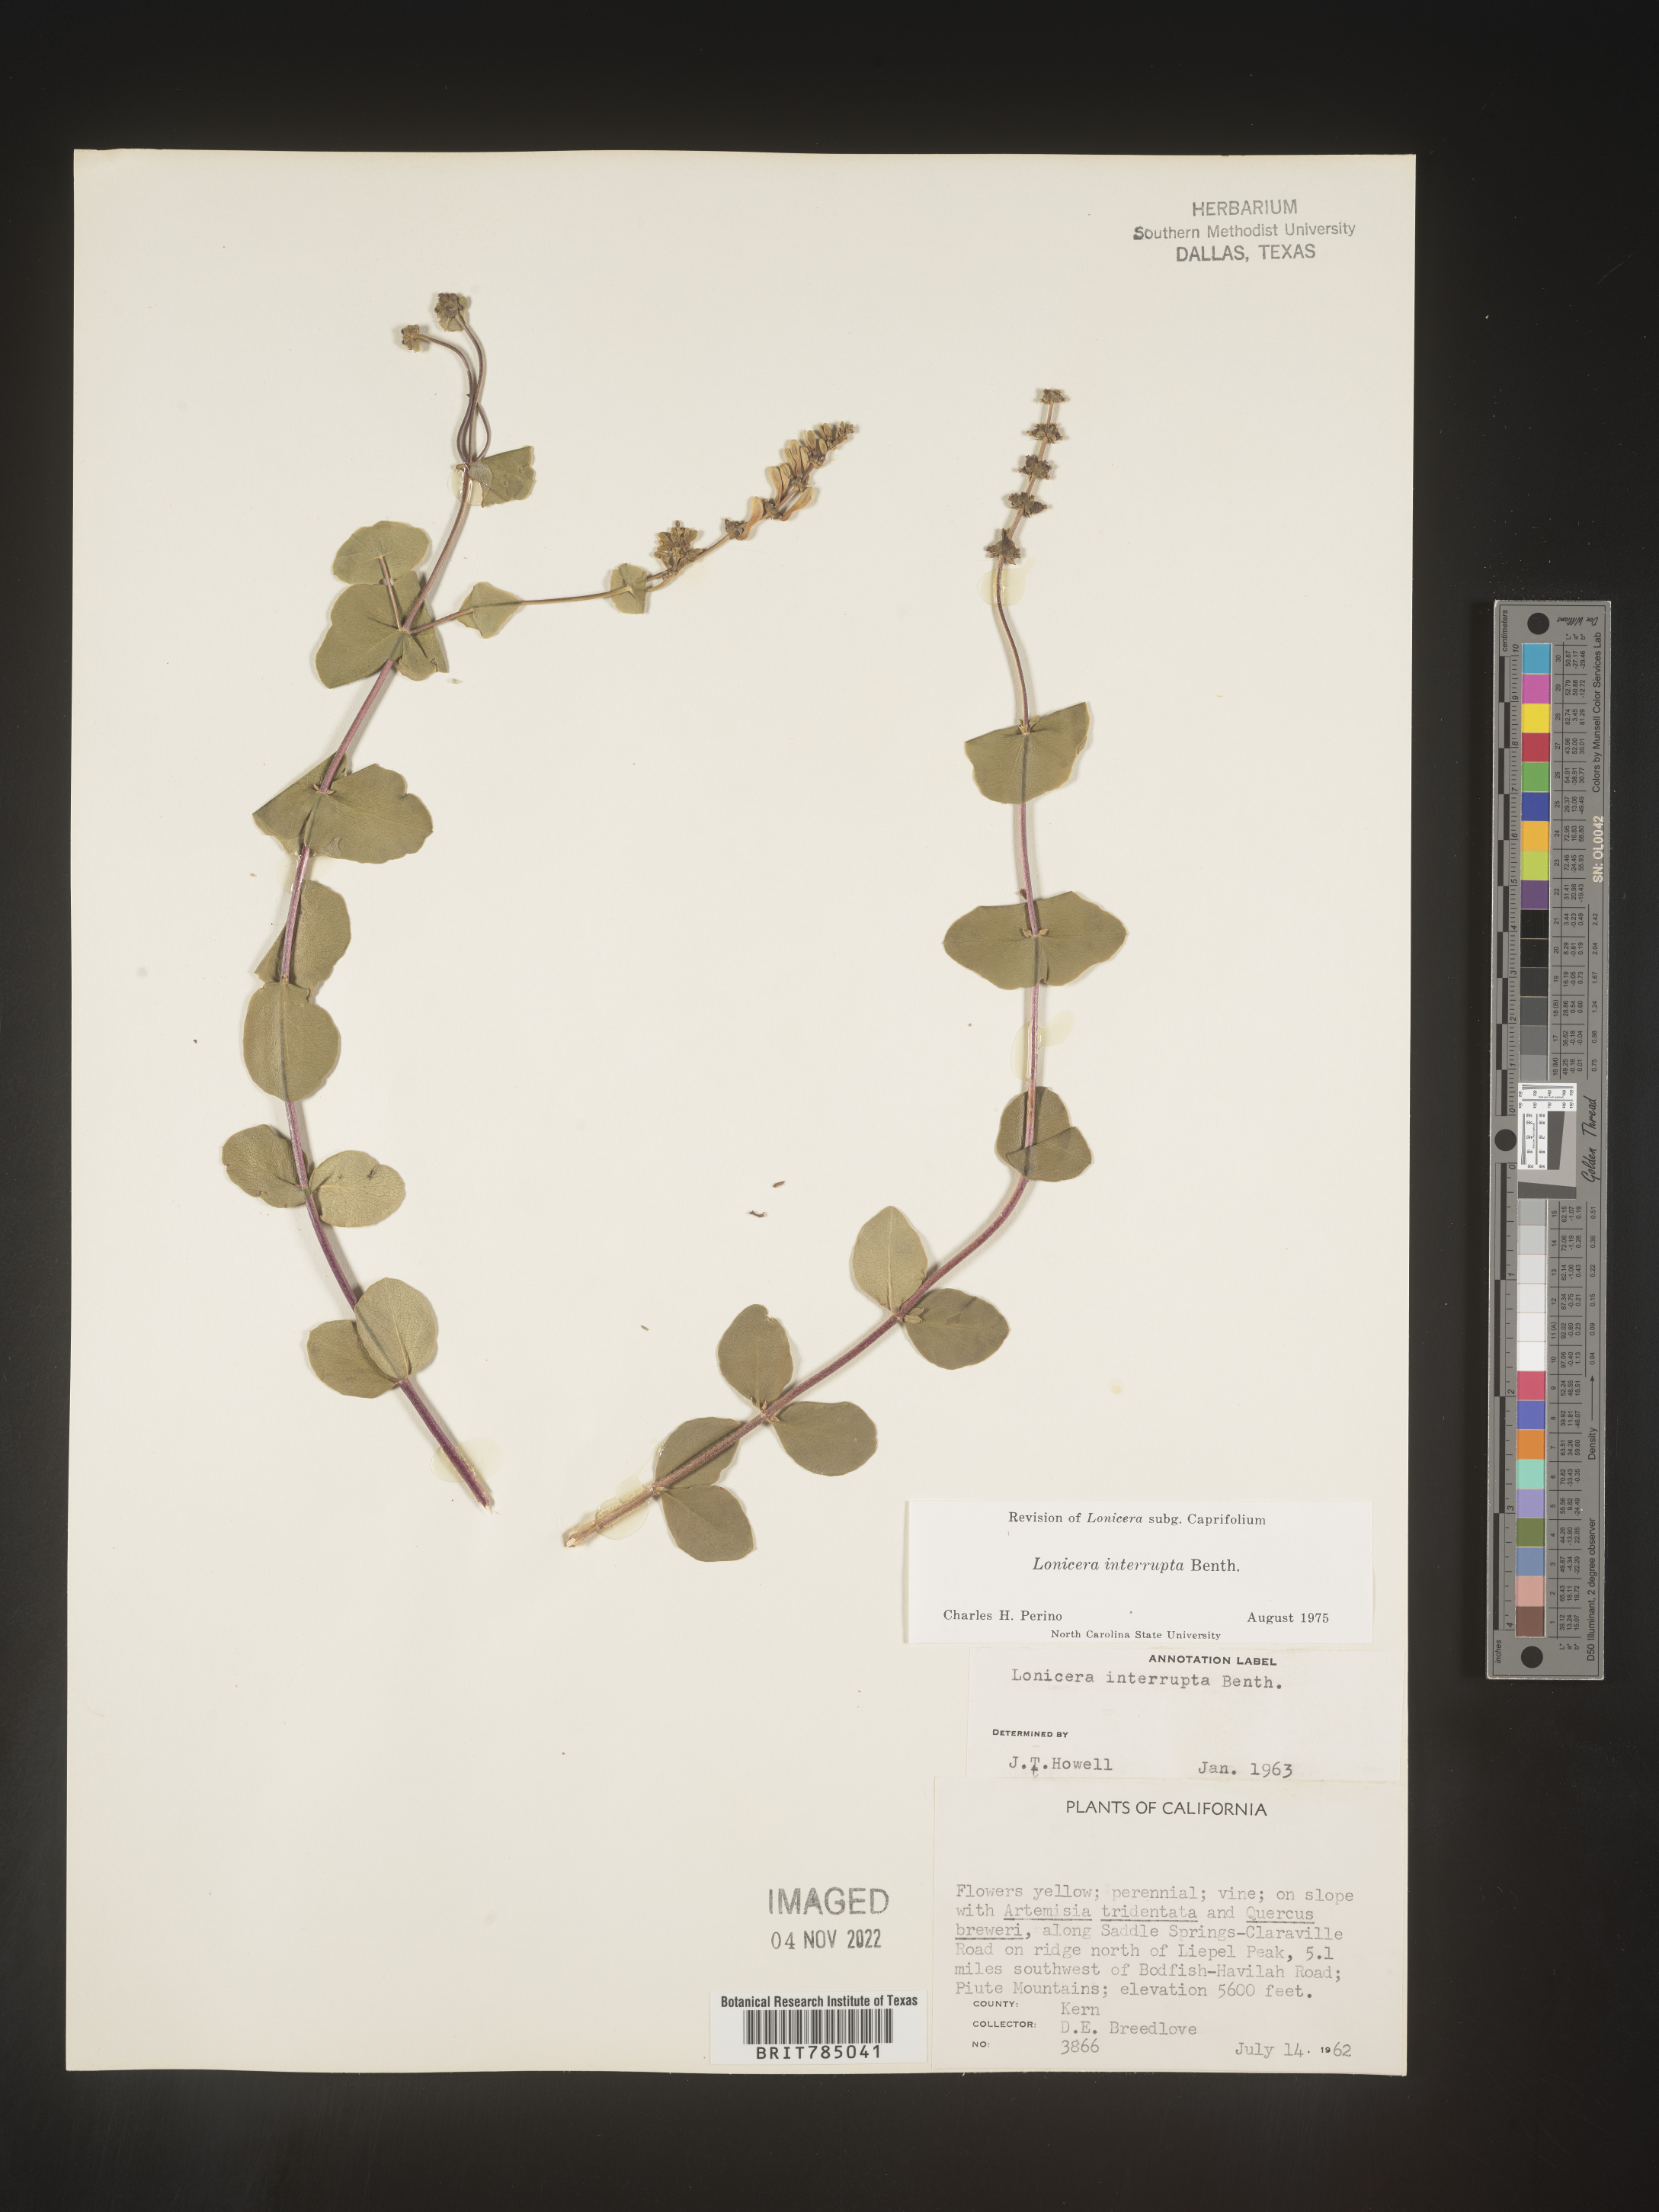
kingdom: Plantae
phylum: Tracheophyta
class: Magnoliopsida
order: Dipsacales
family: Caprifoliaceae
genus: Lonicera
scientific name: Lonicera
